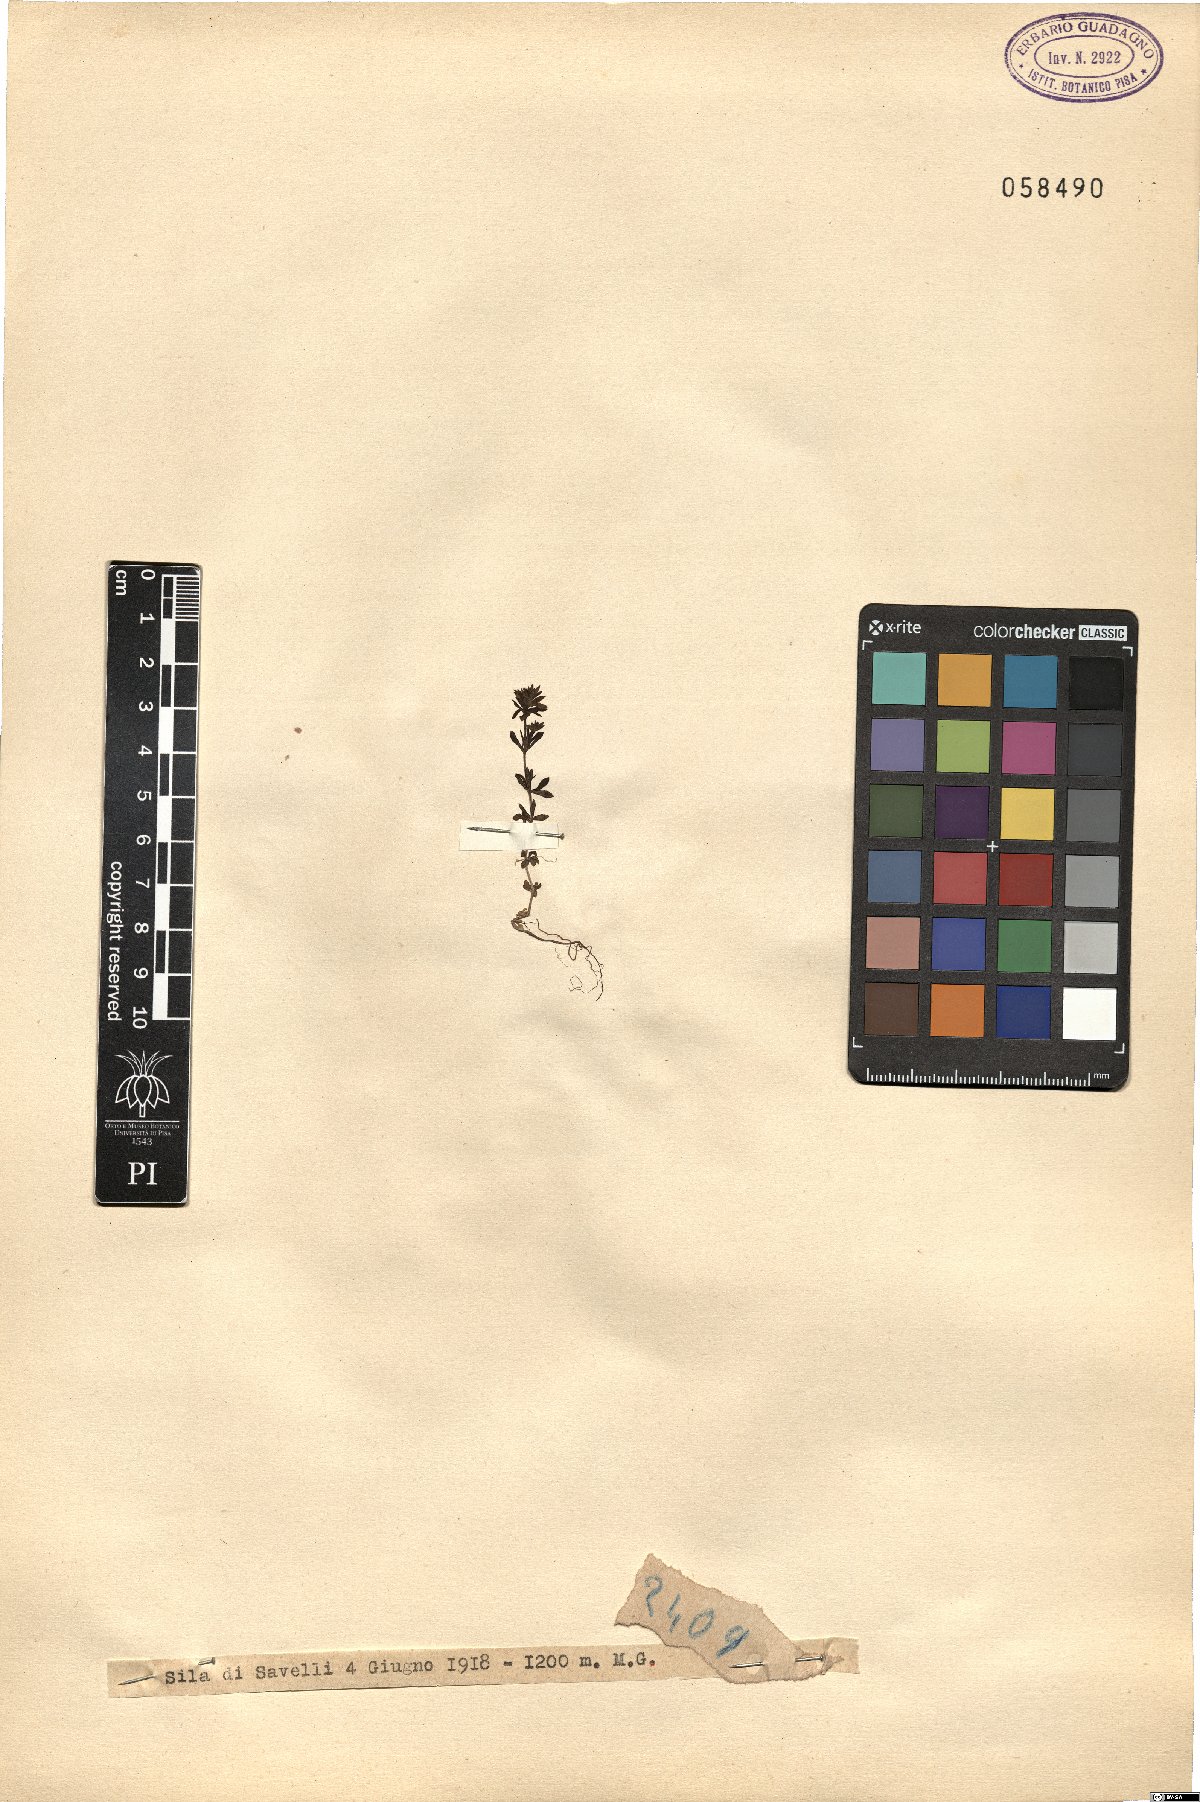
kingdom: Plantae
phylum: Tracheophyta
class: Magnoliopsida
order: Lamiales
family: Plantaginaceae
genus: Veronica
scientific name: Veronica
